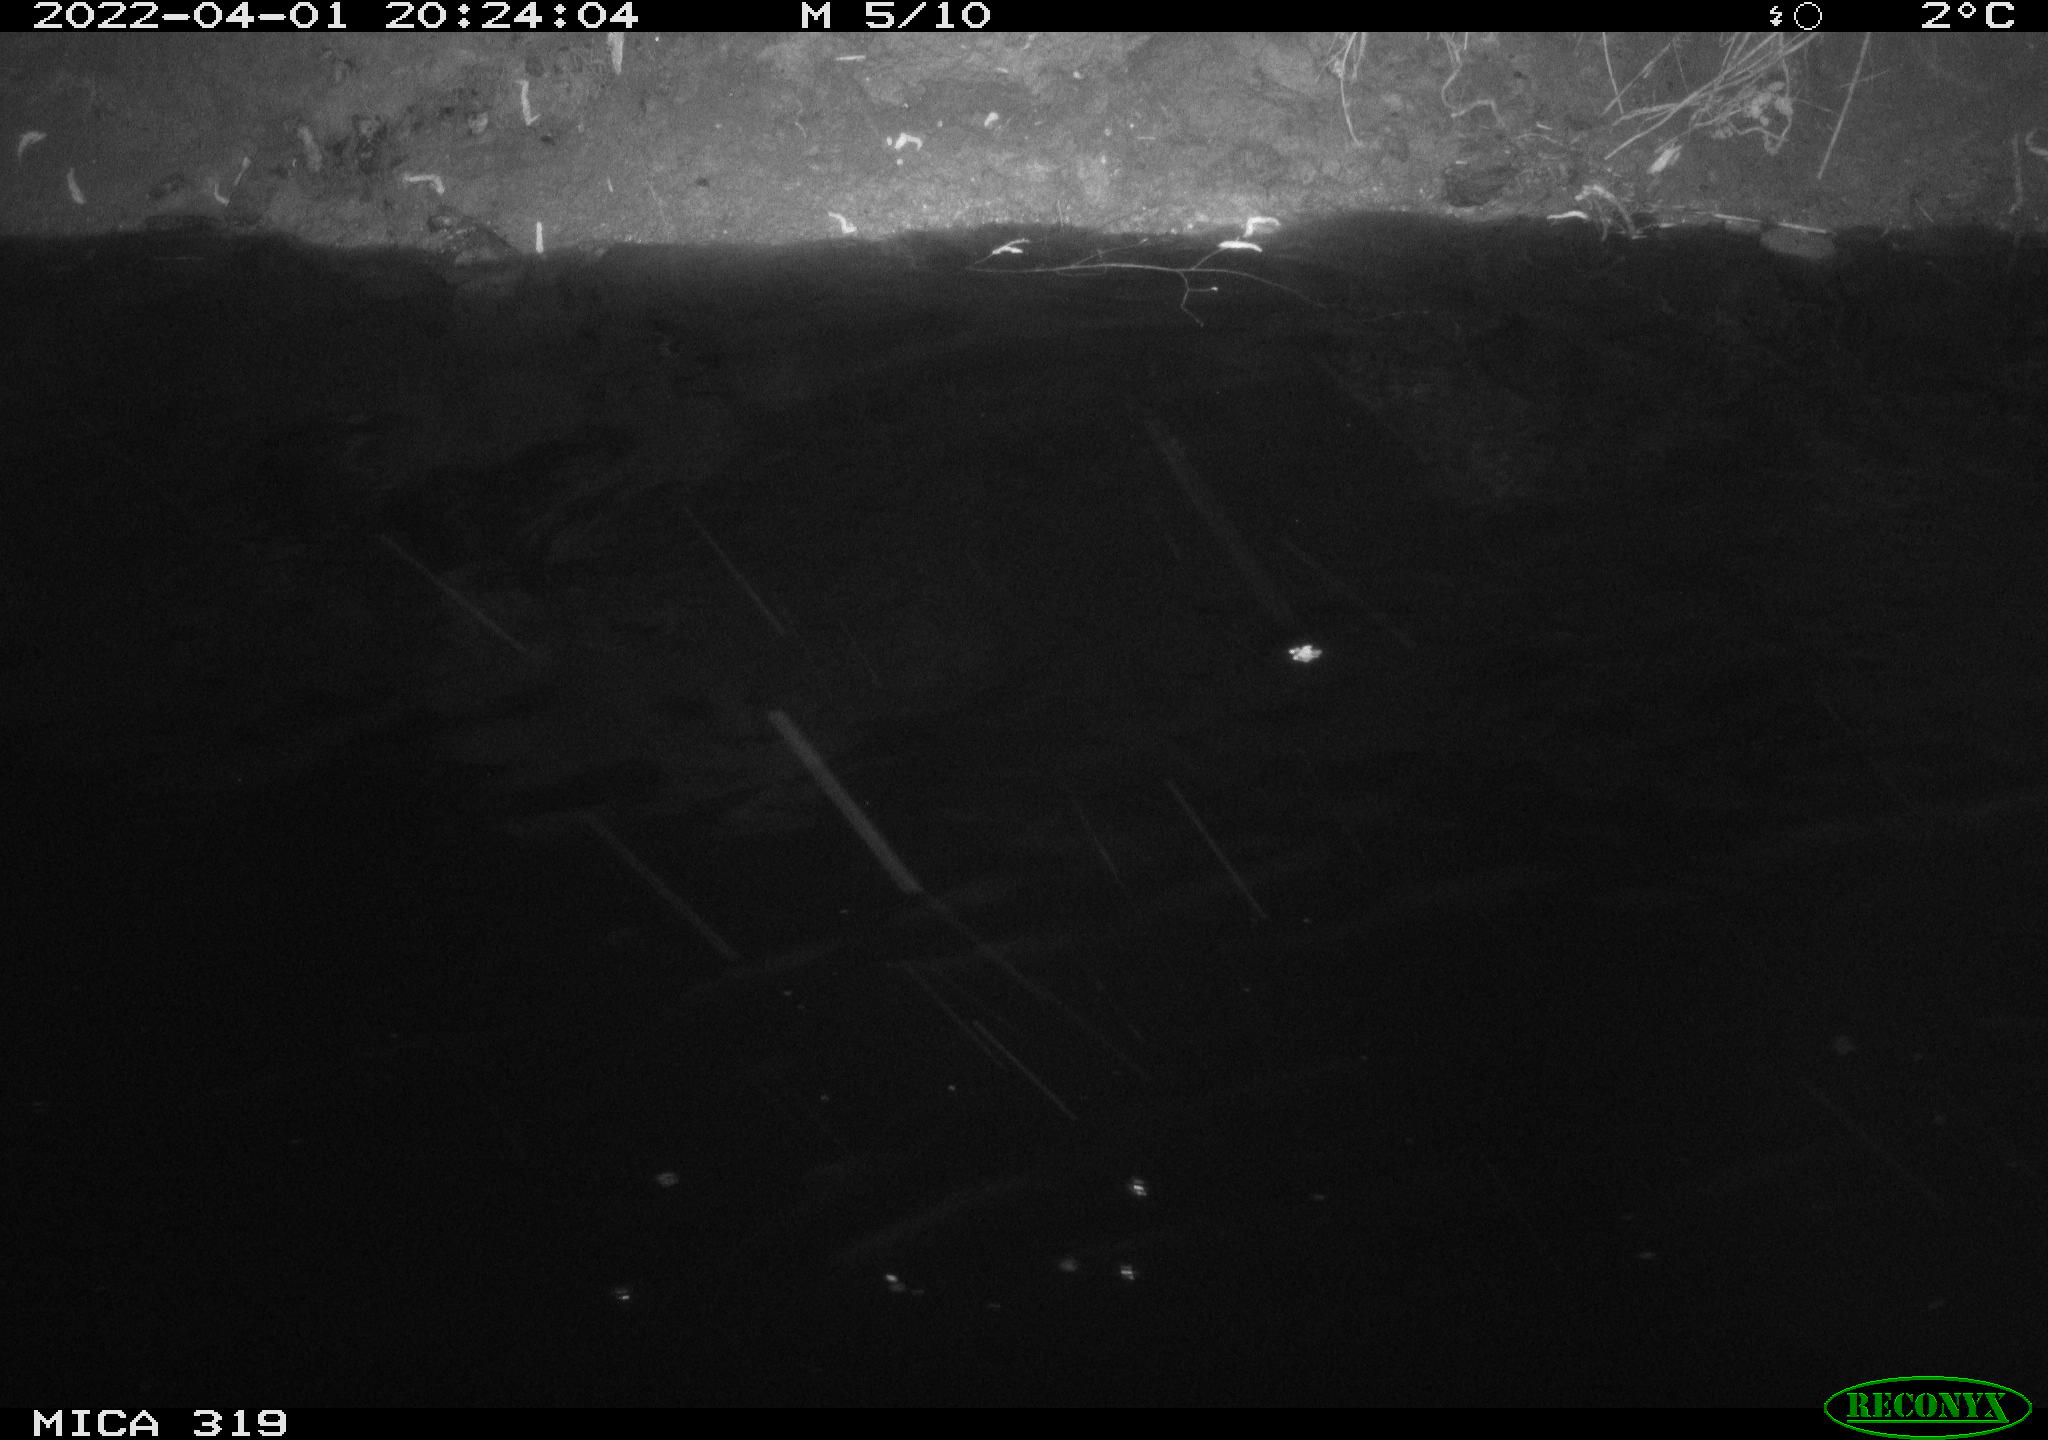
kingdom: Animalia
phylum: Chordata
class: Aves
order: Anseriformes
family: Anatidae
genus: Anas
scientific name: Anas platyrhynchos
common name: Mallard
